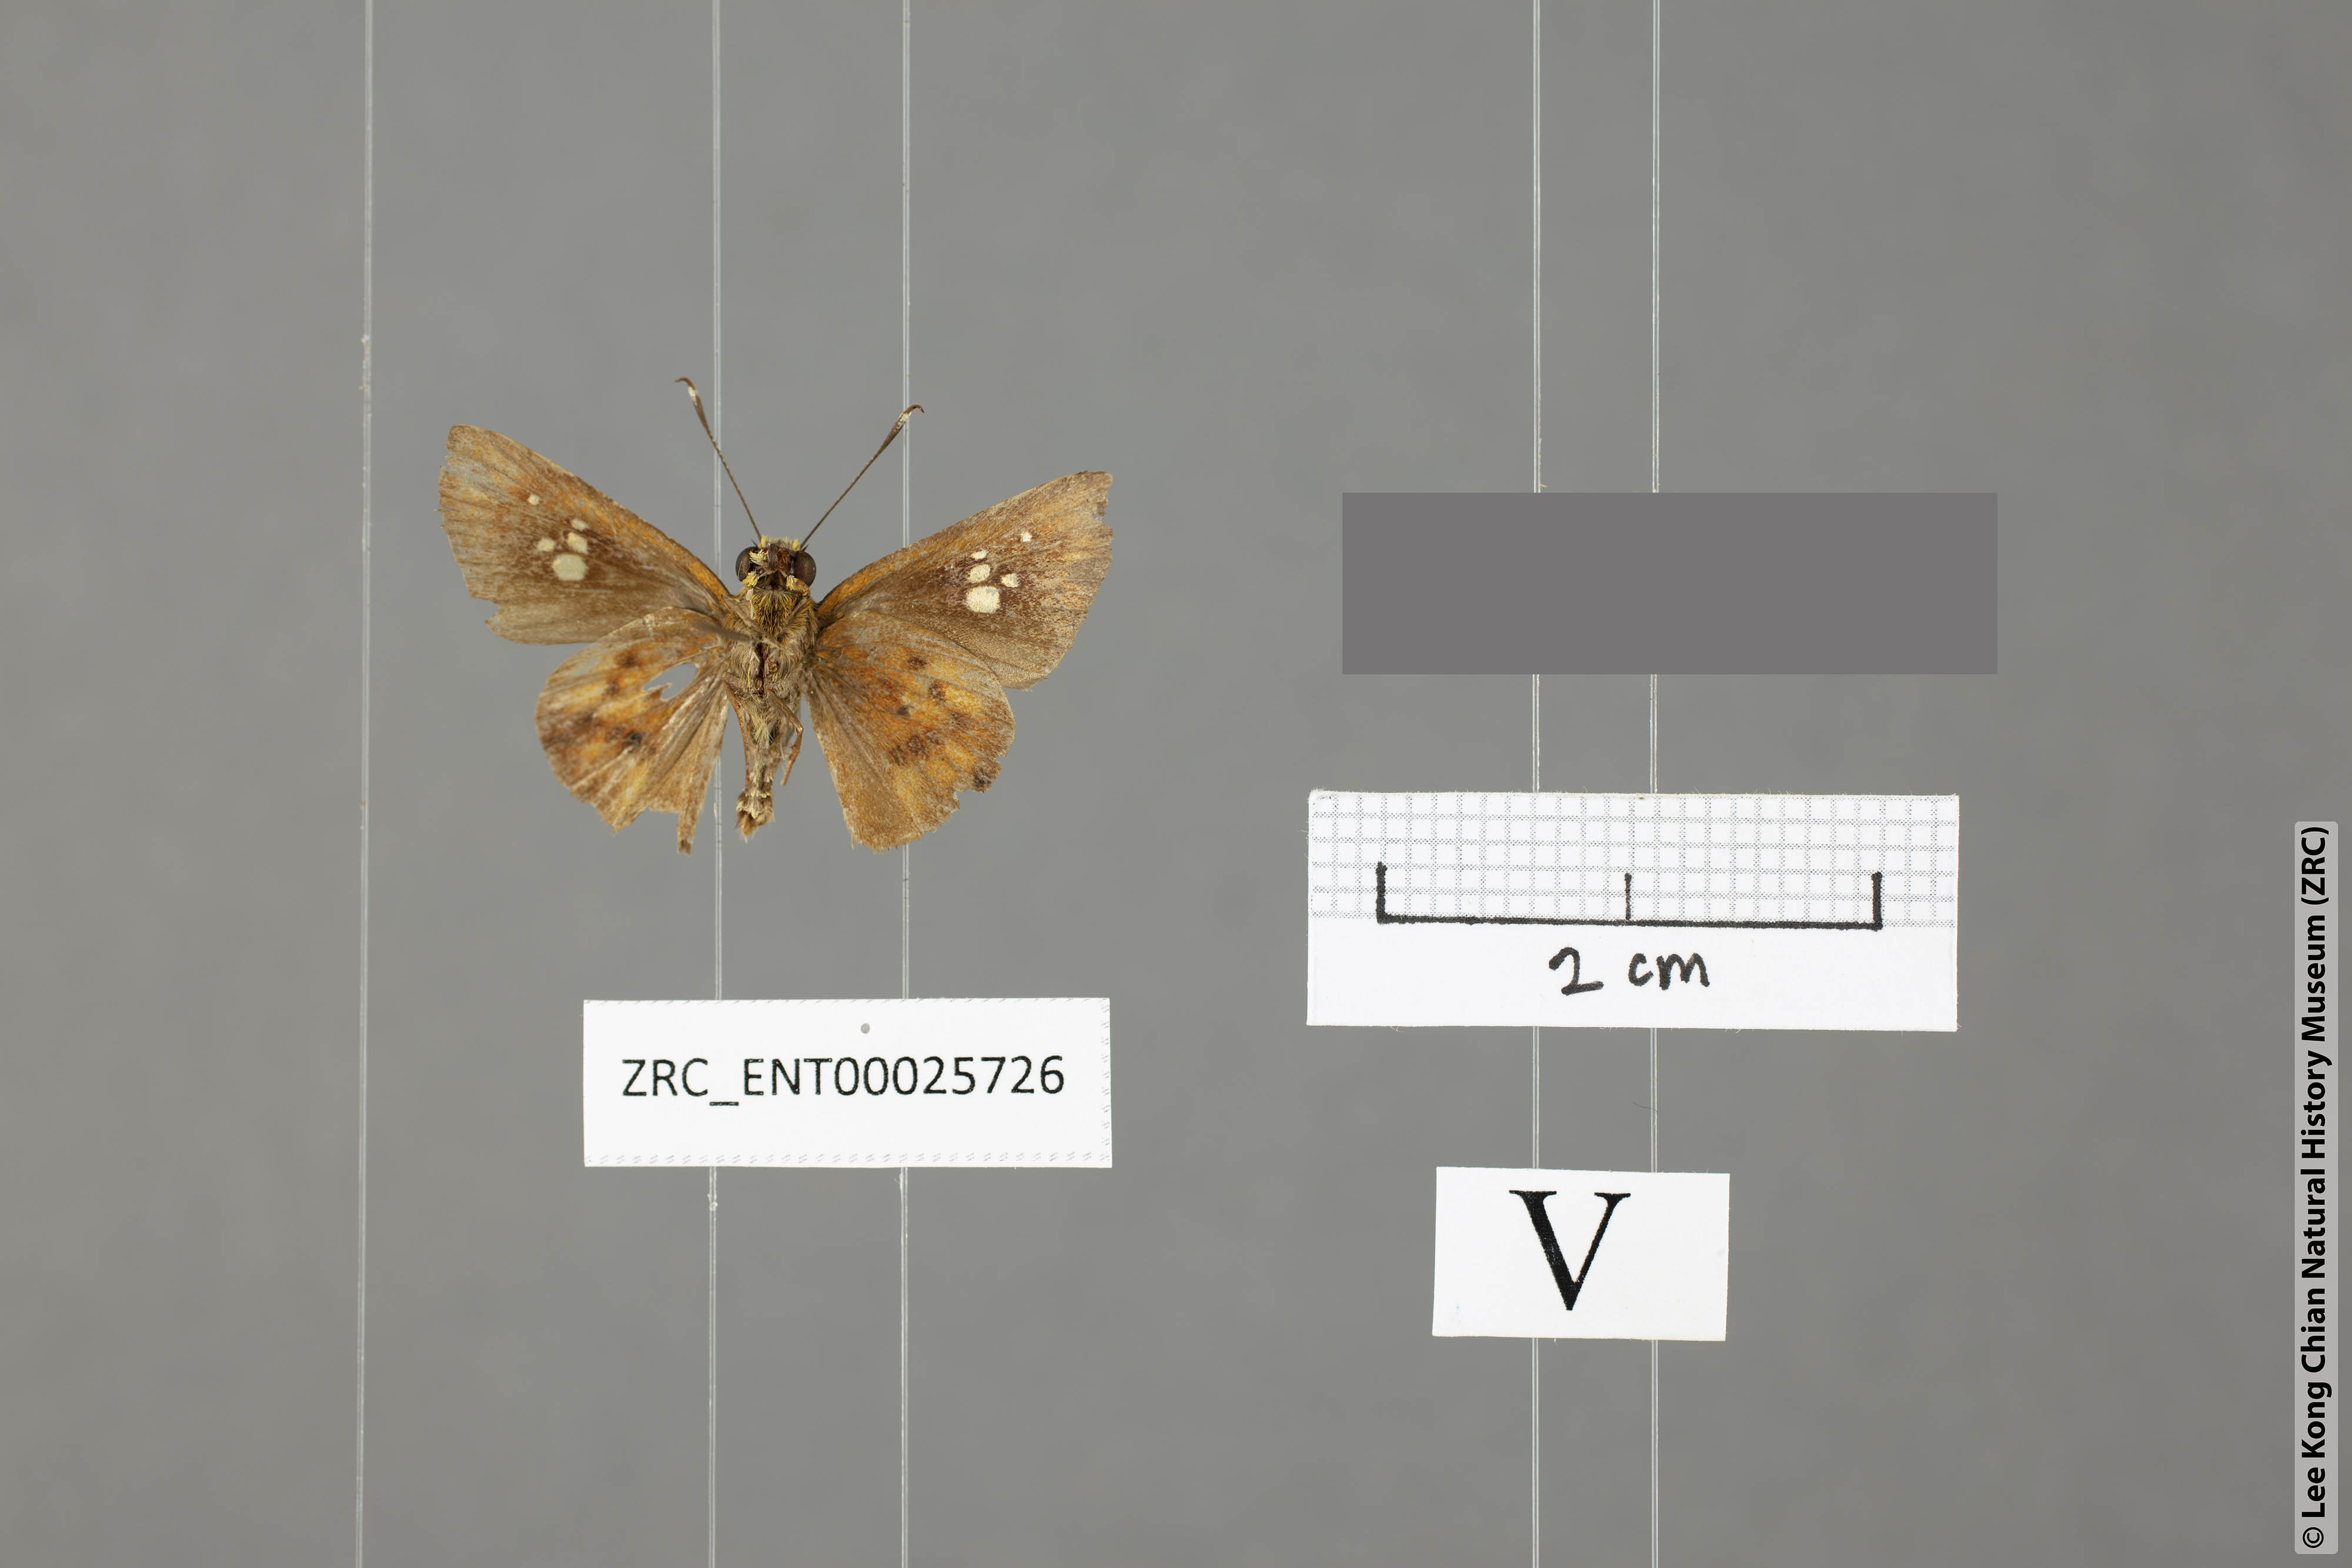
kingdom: Animalia
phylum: Arthropoda
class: Insecta
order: Lepidoptera
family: Hesperiidae
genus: Zographetus
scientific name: Zographetus doxus
